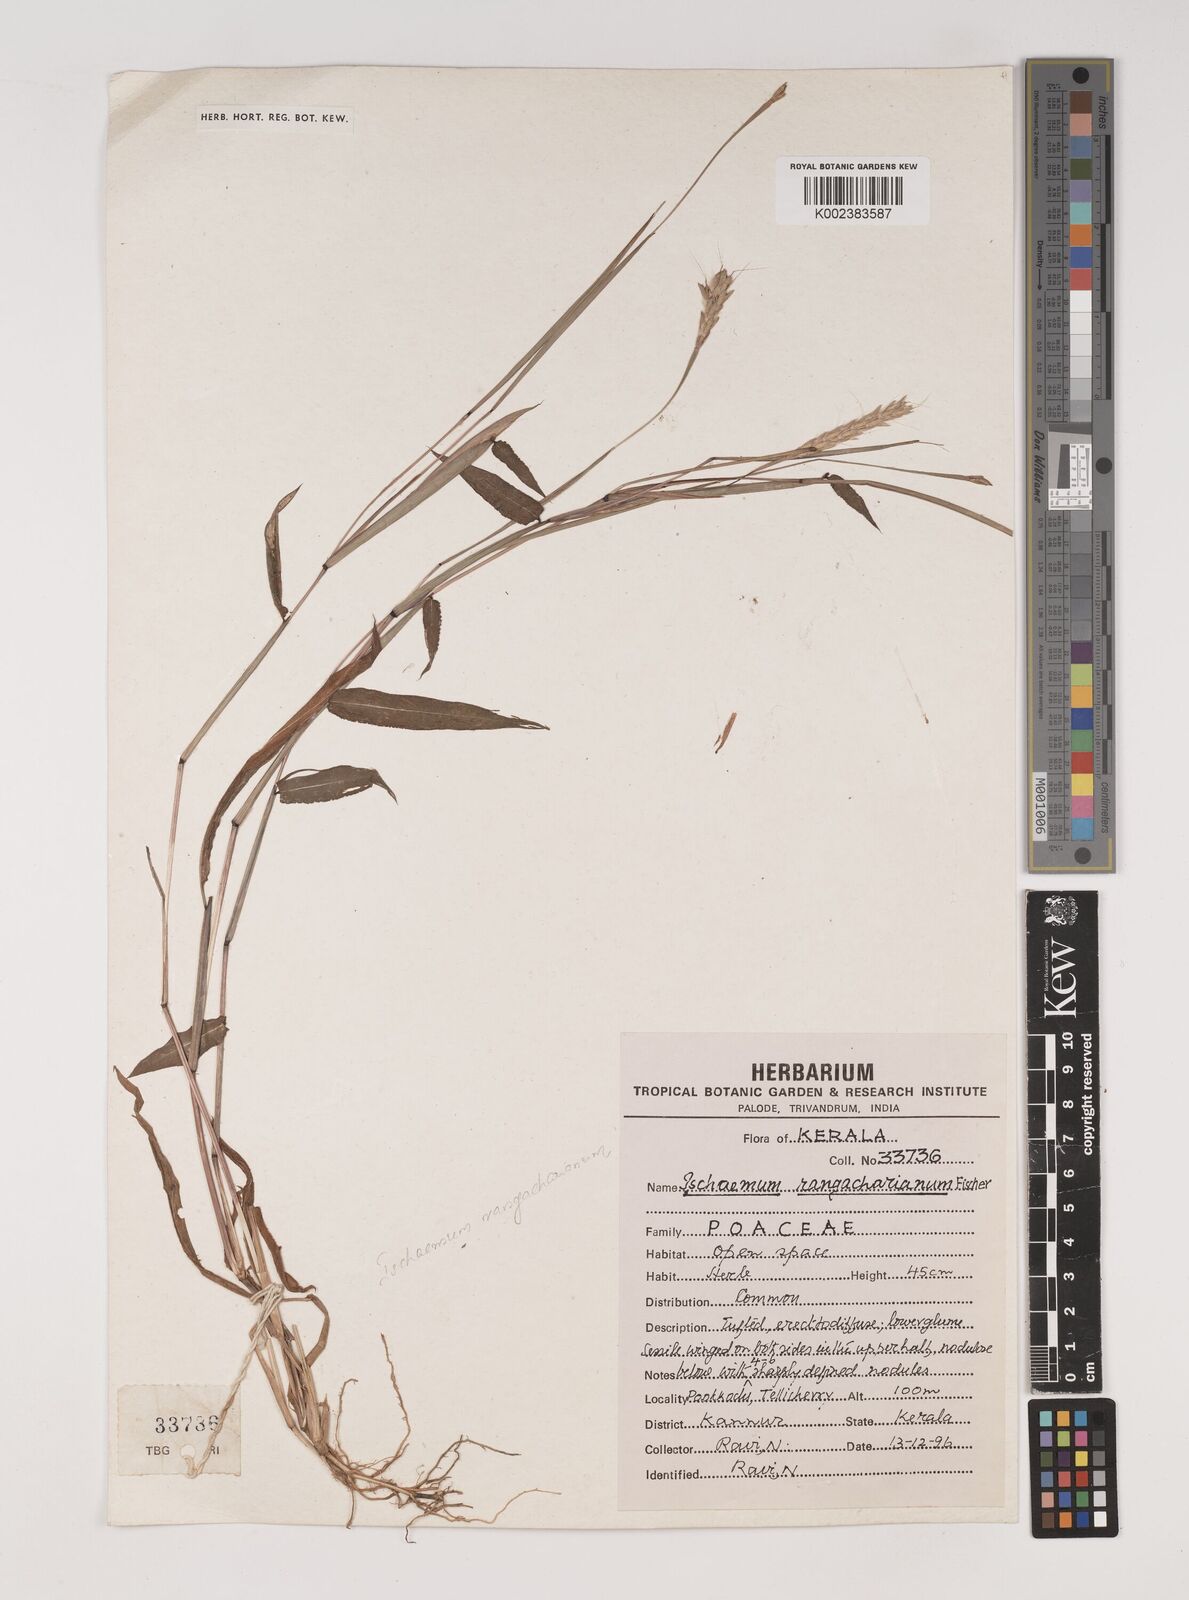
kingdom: Plantae
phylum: Tracheophyta
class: Liliopsida
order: Poales
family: Poaceae
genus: Ischaemum
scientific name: Ischaemum rangacharianum
